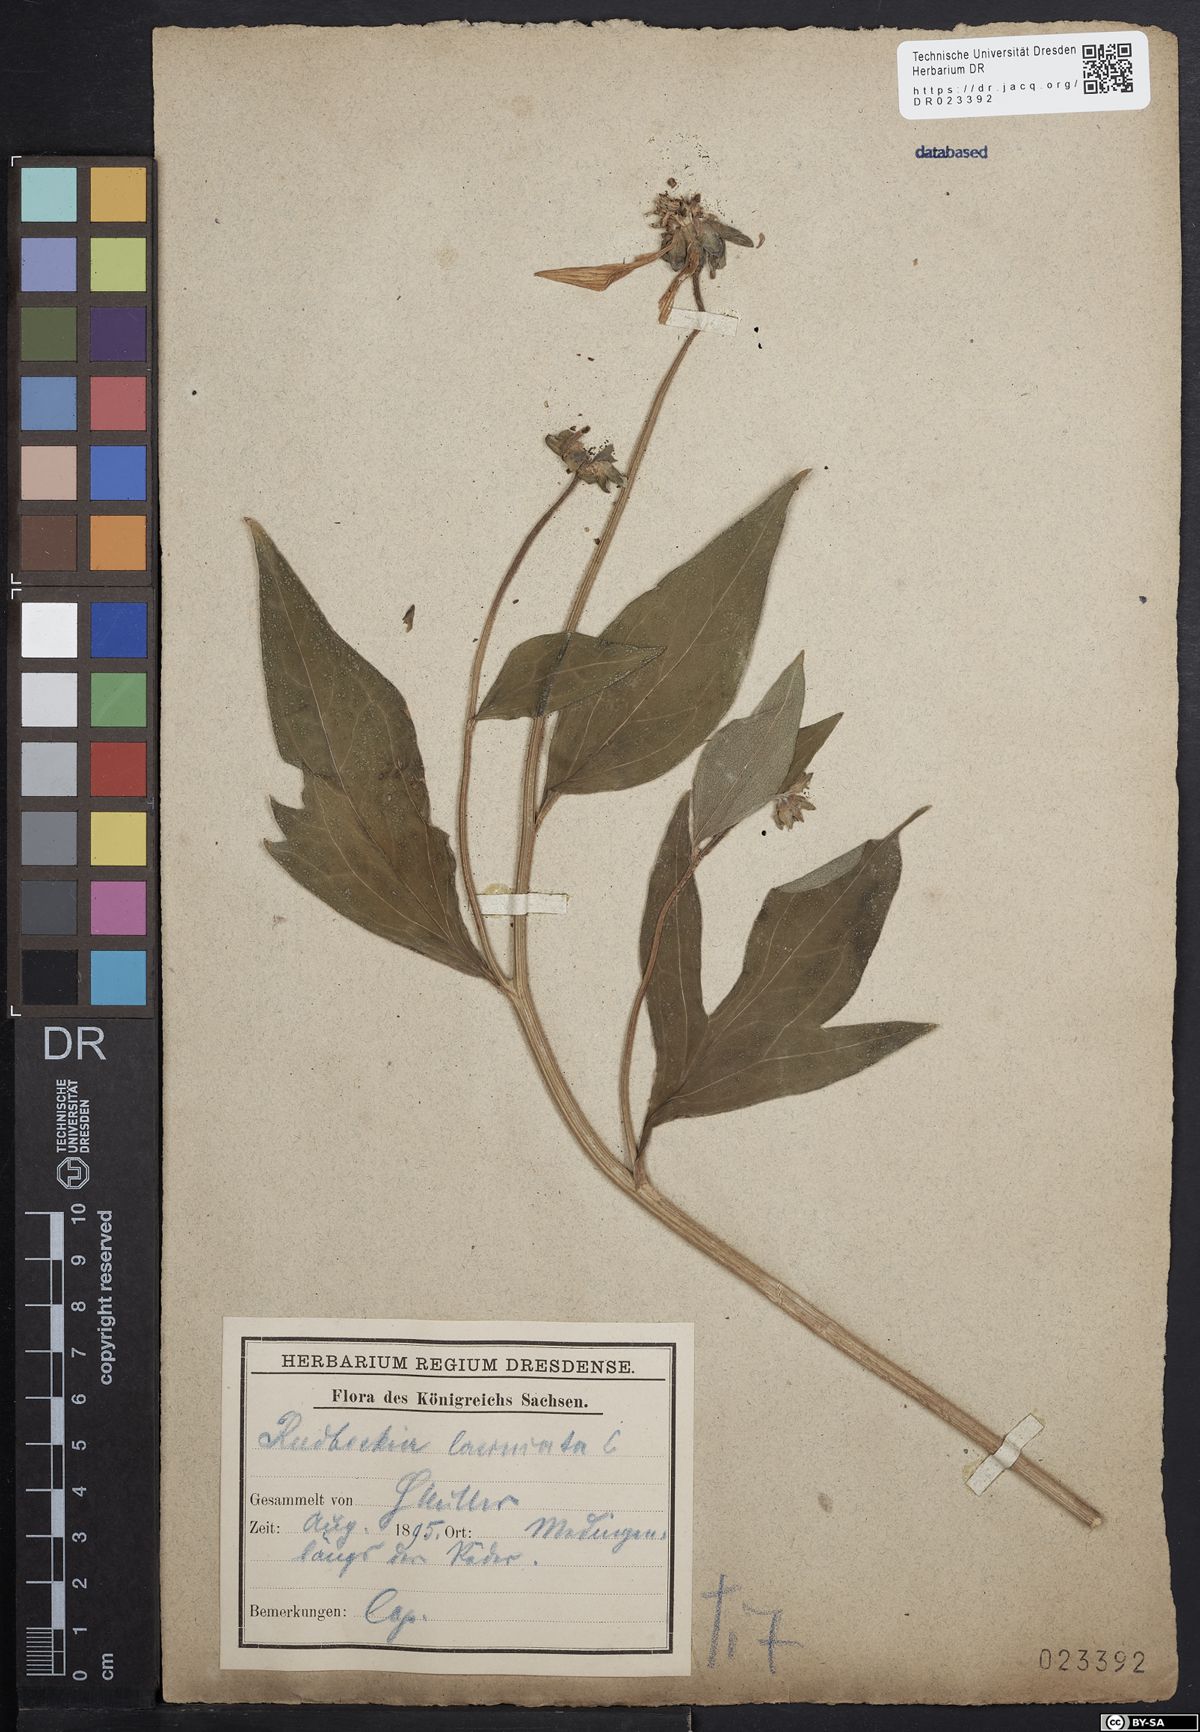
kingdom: Plantae
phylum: Tracheophyta
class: Magnoliopsida
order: Asterales
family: Asteraceae
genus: Rudbeckia
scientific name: Rudbeckia laciniata
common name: Coneflower
